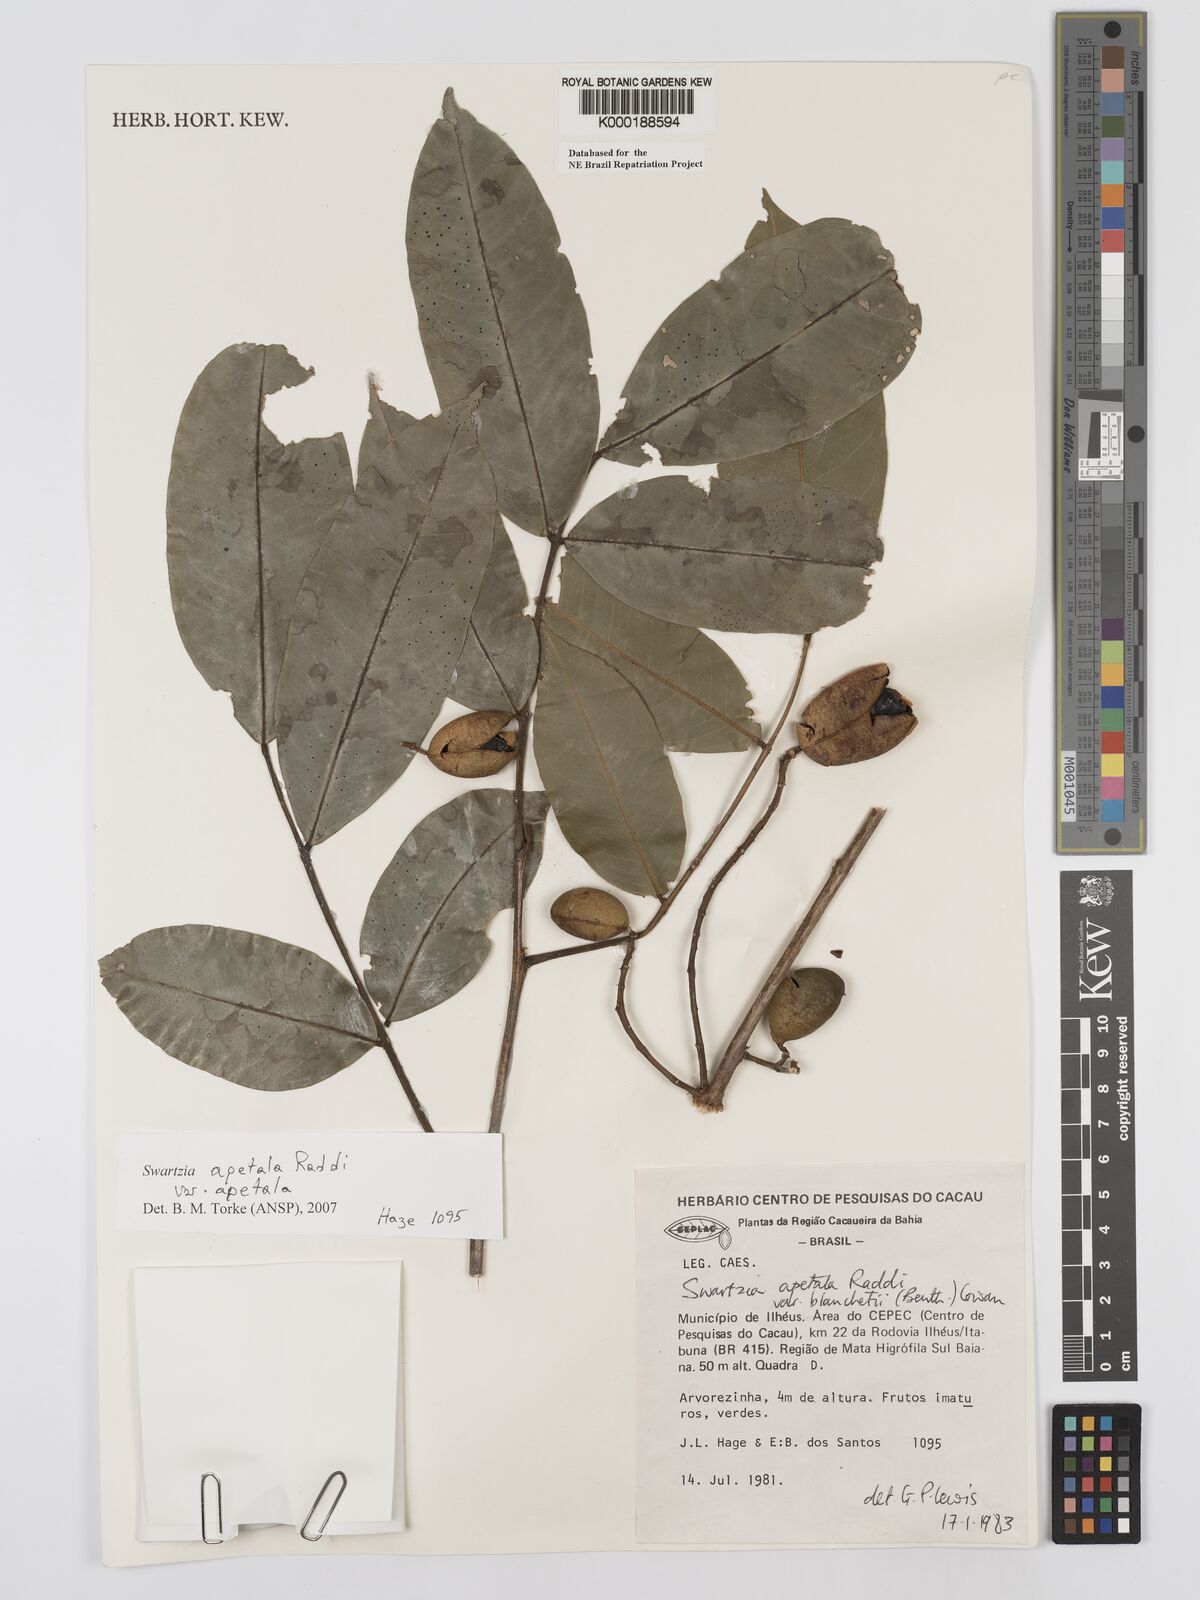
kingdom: Plantae
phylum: Tracheophyta
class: Magnoliopsida
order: Fabales
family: Fabaceae
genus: Swartzia
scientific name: Swartzia apetala
